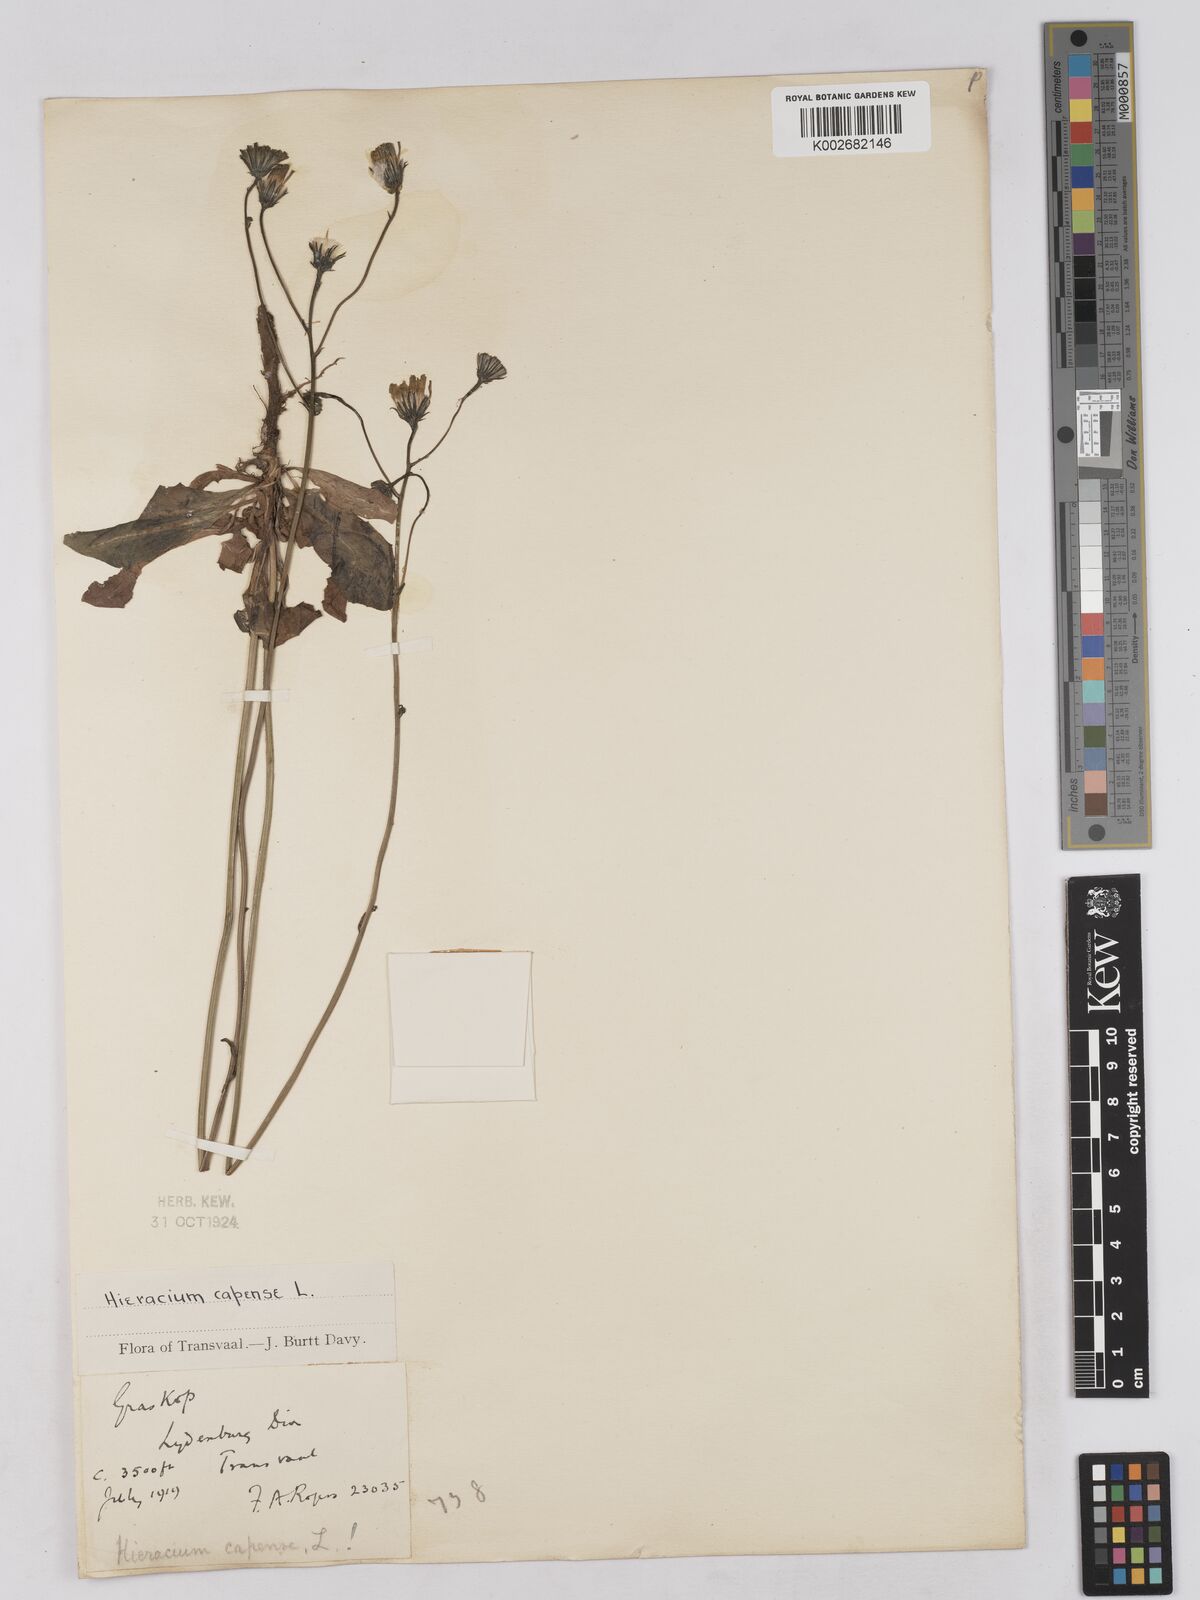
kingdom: Plantae
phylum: Tracheophyta
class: Magnoliopsida
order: Asterales
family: Asteraceae
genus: Tolpis
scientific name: Tolpis capensis
